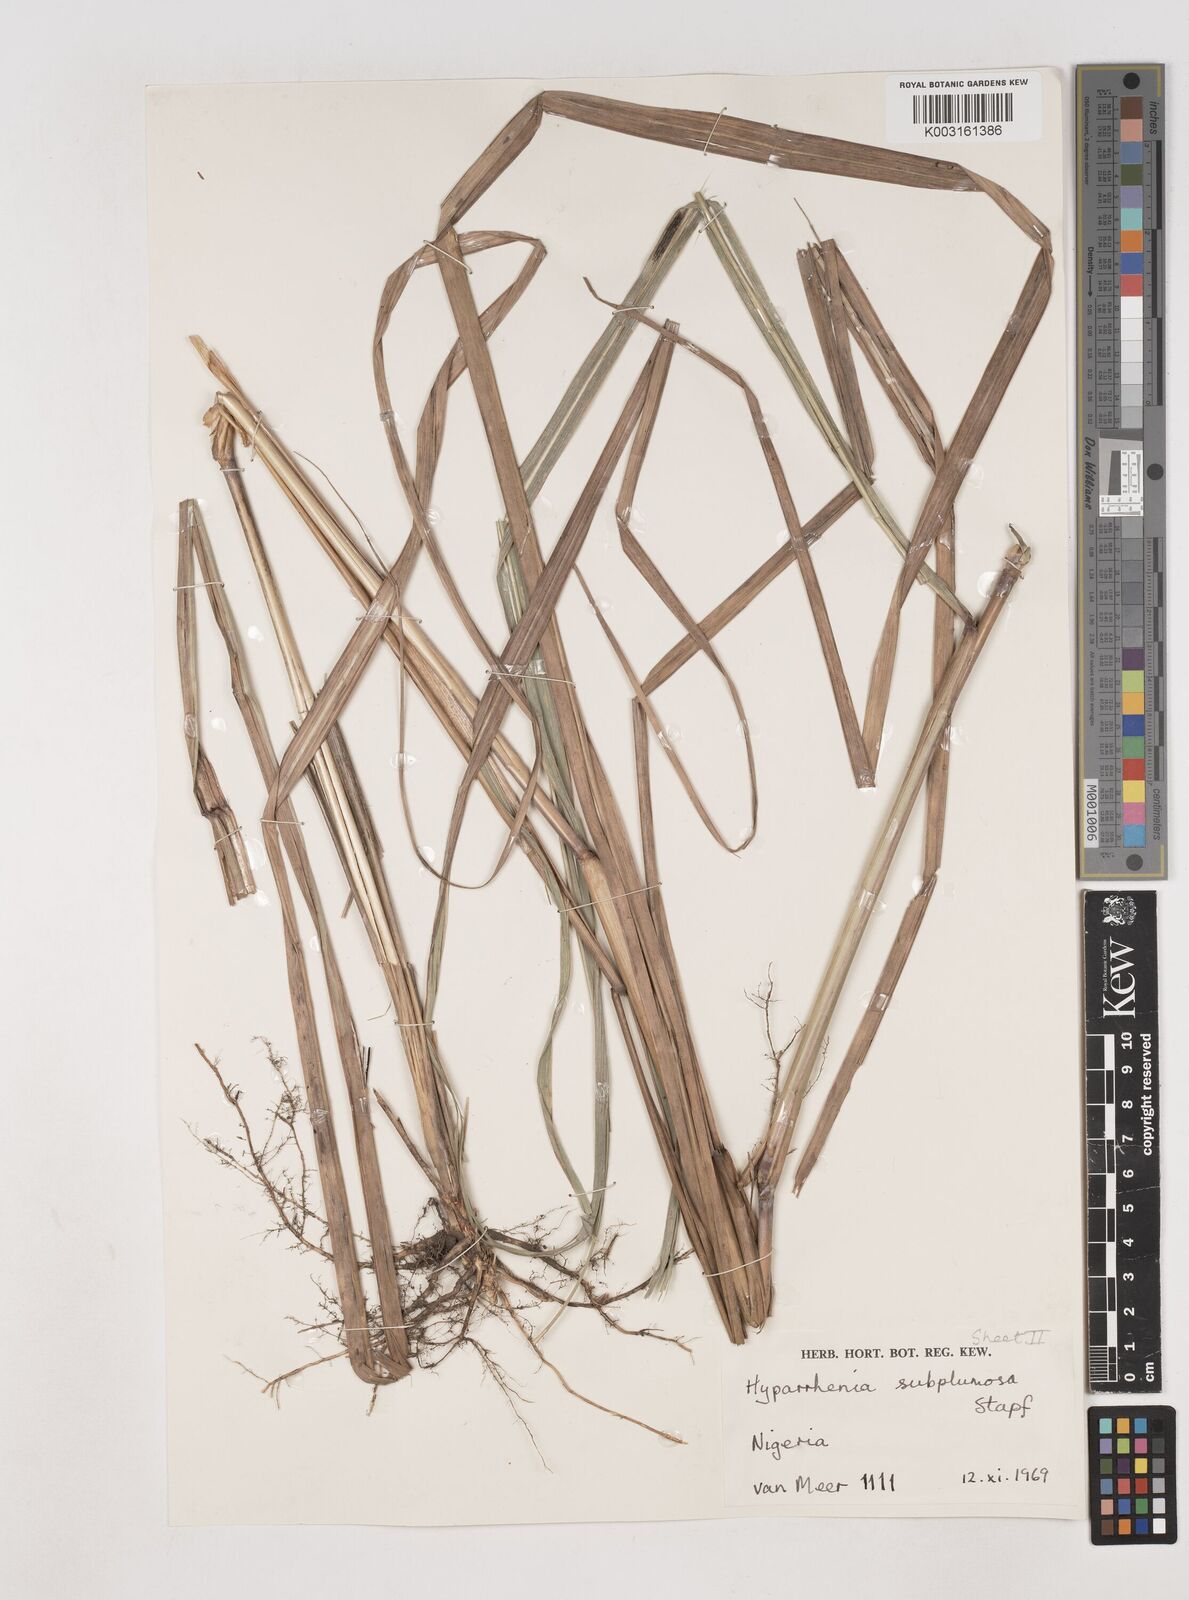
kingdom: Plantae
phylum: Tracheophyta
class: Liliopsida
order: Poales
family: Poaceae
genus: Hyparrhenia
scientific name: Hyparrhenia subplumosa
